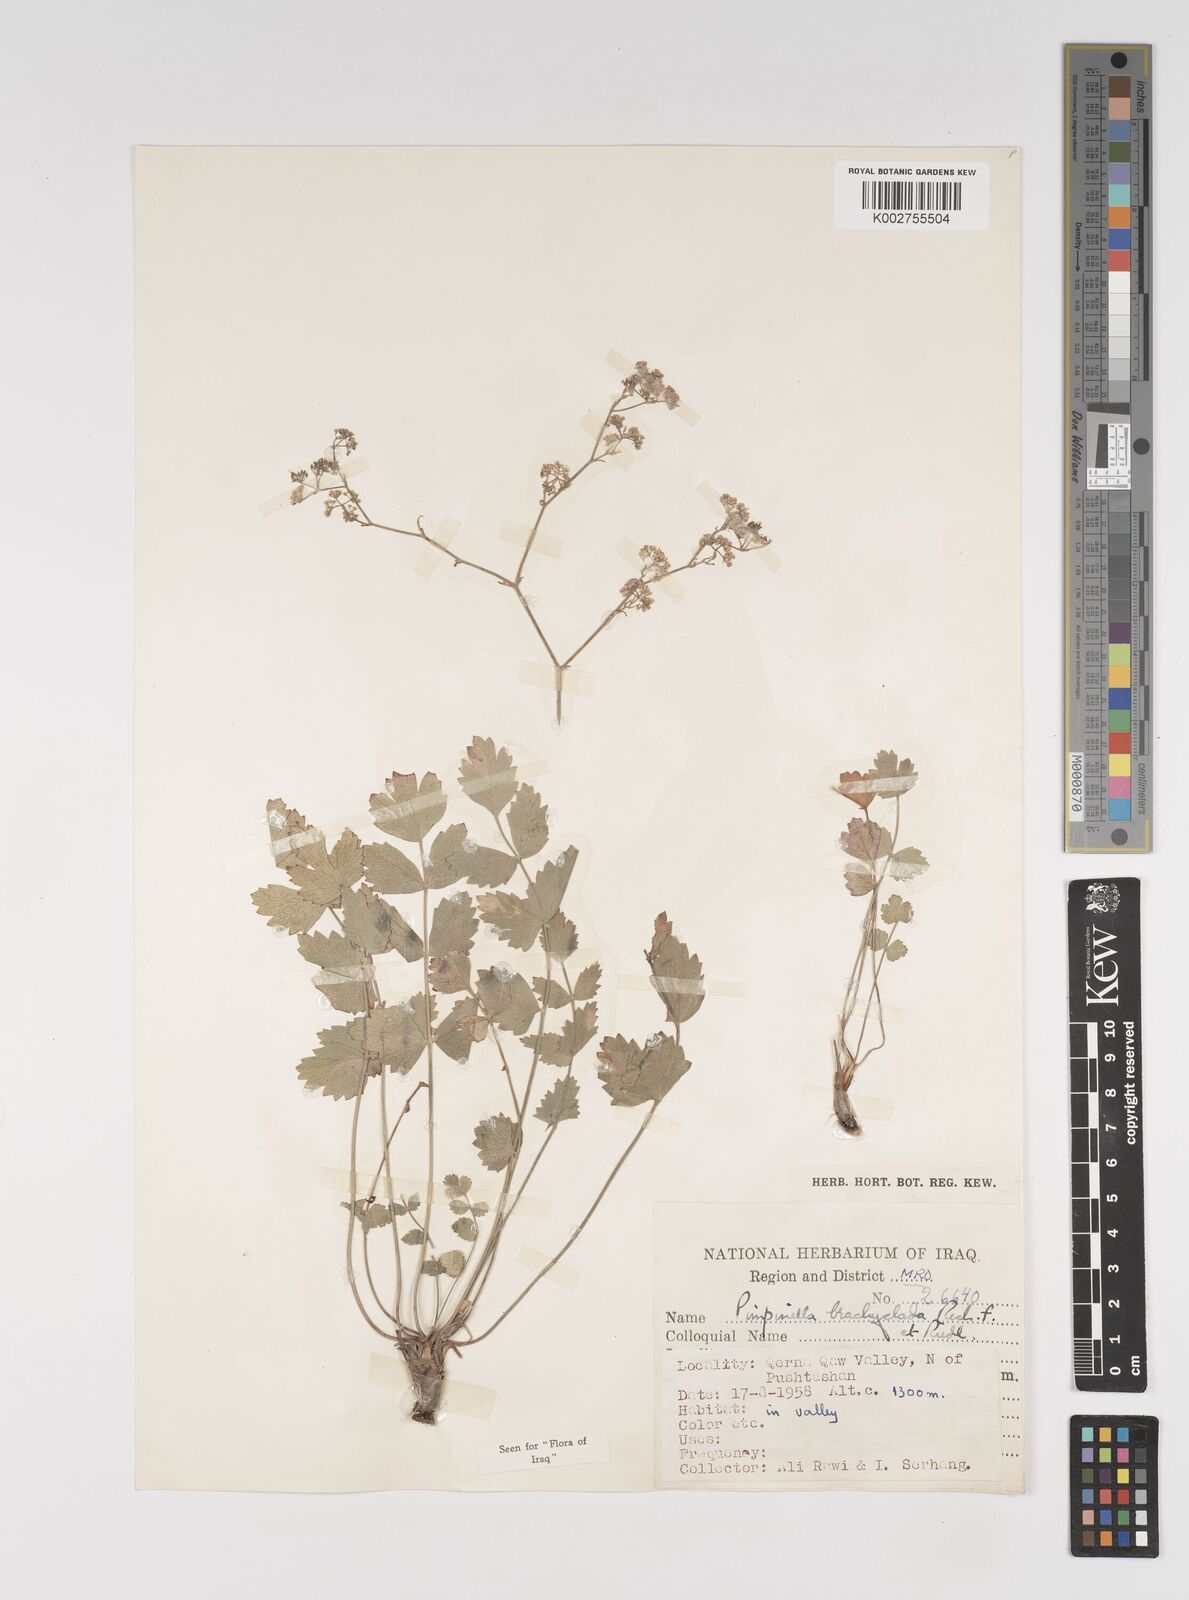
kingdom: Plantae
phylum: Tracheophyta
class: Magnoliopsida
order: Apiales
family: Apiaceae
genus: Pimpinella
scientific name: Pimpinella brachyclada
